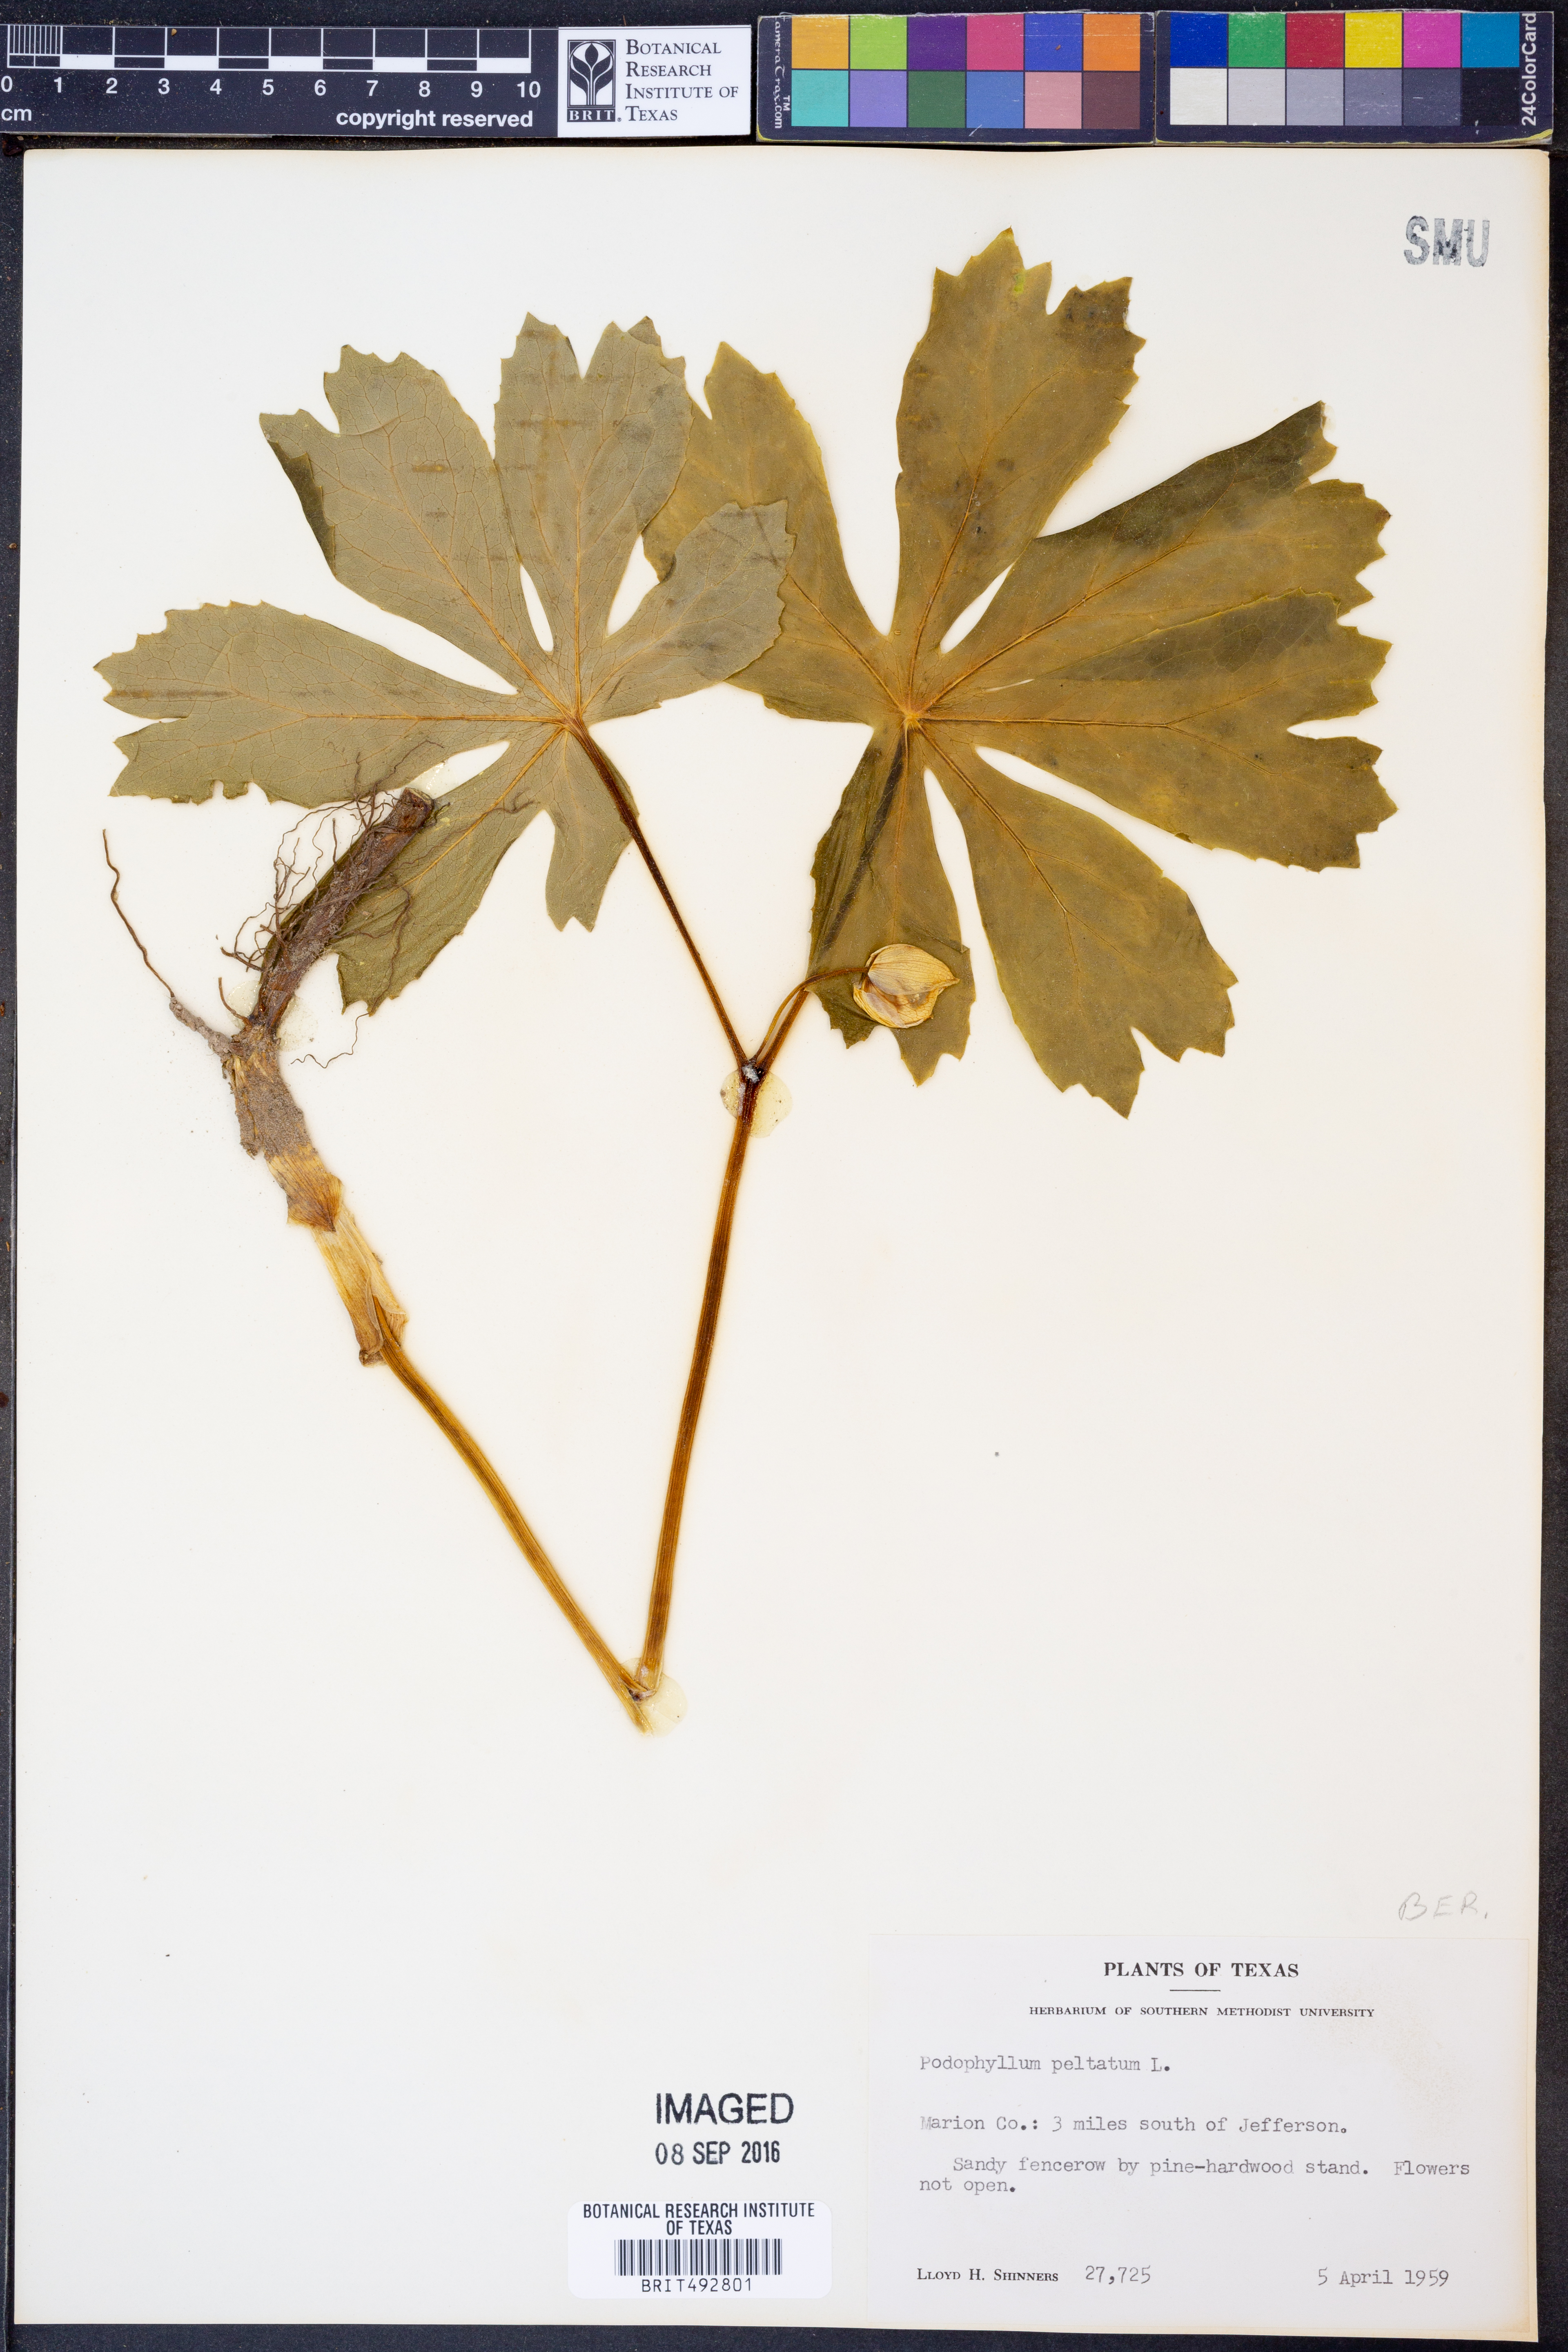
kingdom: Plantae
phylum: Tracheophyta
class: Magnoliopsida
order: Ranunculales
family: Berberidaceae
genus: Podophyllum
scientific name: Podophyllum peltatum
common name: Wild mandrake
